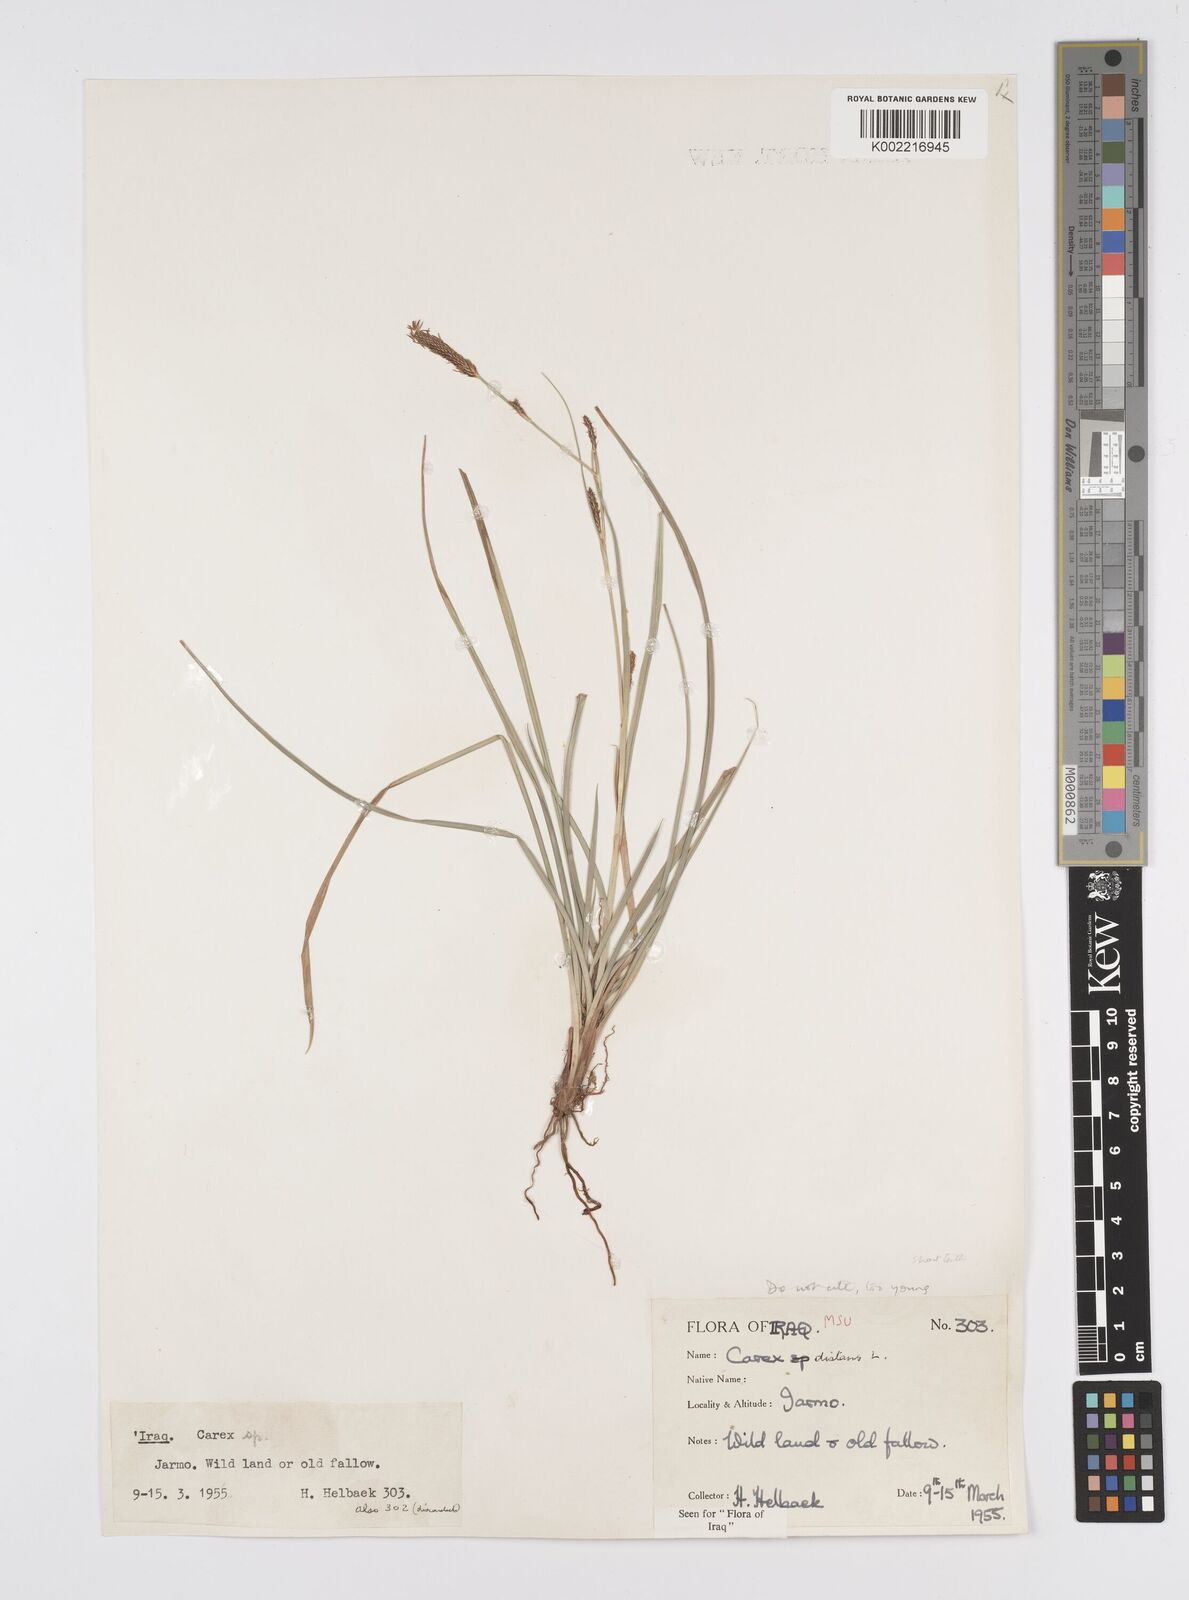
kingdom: Plantae
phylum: Tracheophyta
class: Liliopsida
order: Poales
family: Cyperaceae
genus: Carex
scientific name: Carex distans
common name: Distant sedge
